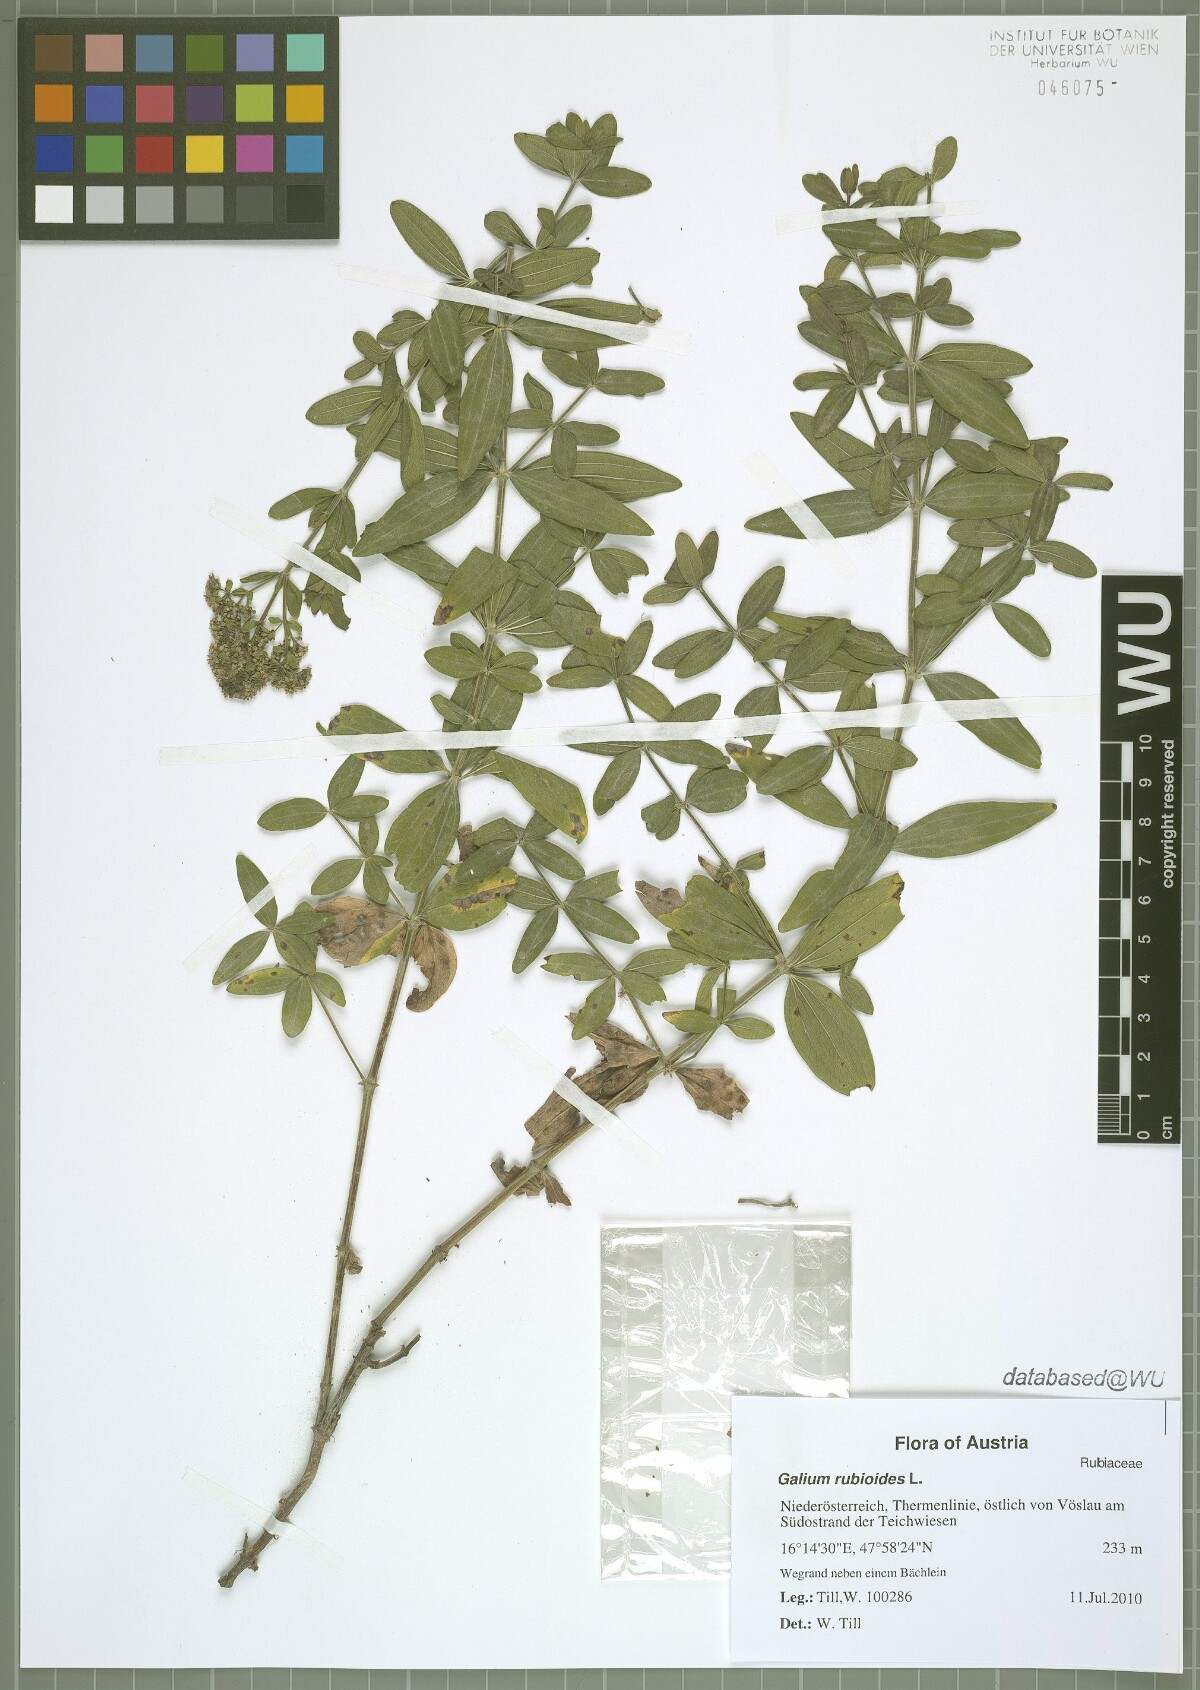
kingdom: Plantae
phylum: Tracheophyta
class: Magnoliopsida
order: Gentianales
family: Rubiaceae
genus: Galium
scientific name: Galium rubioides
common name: European bedstraw
